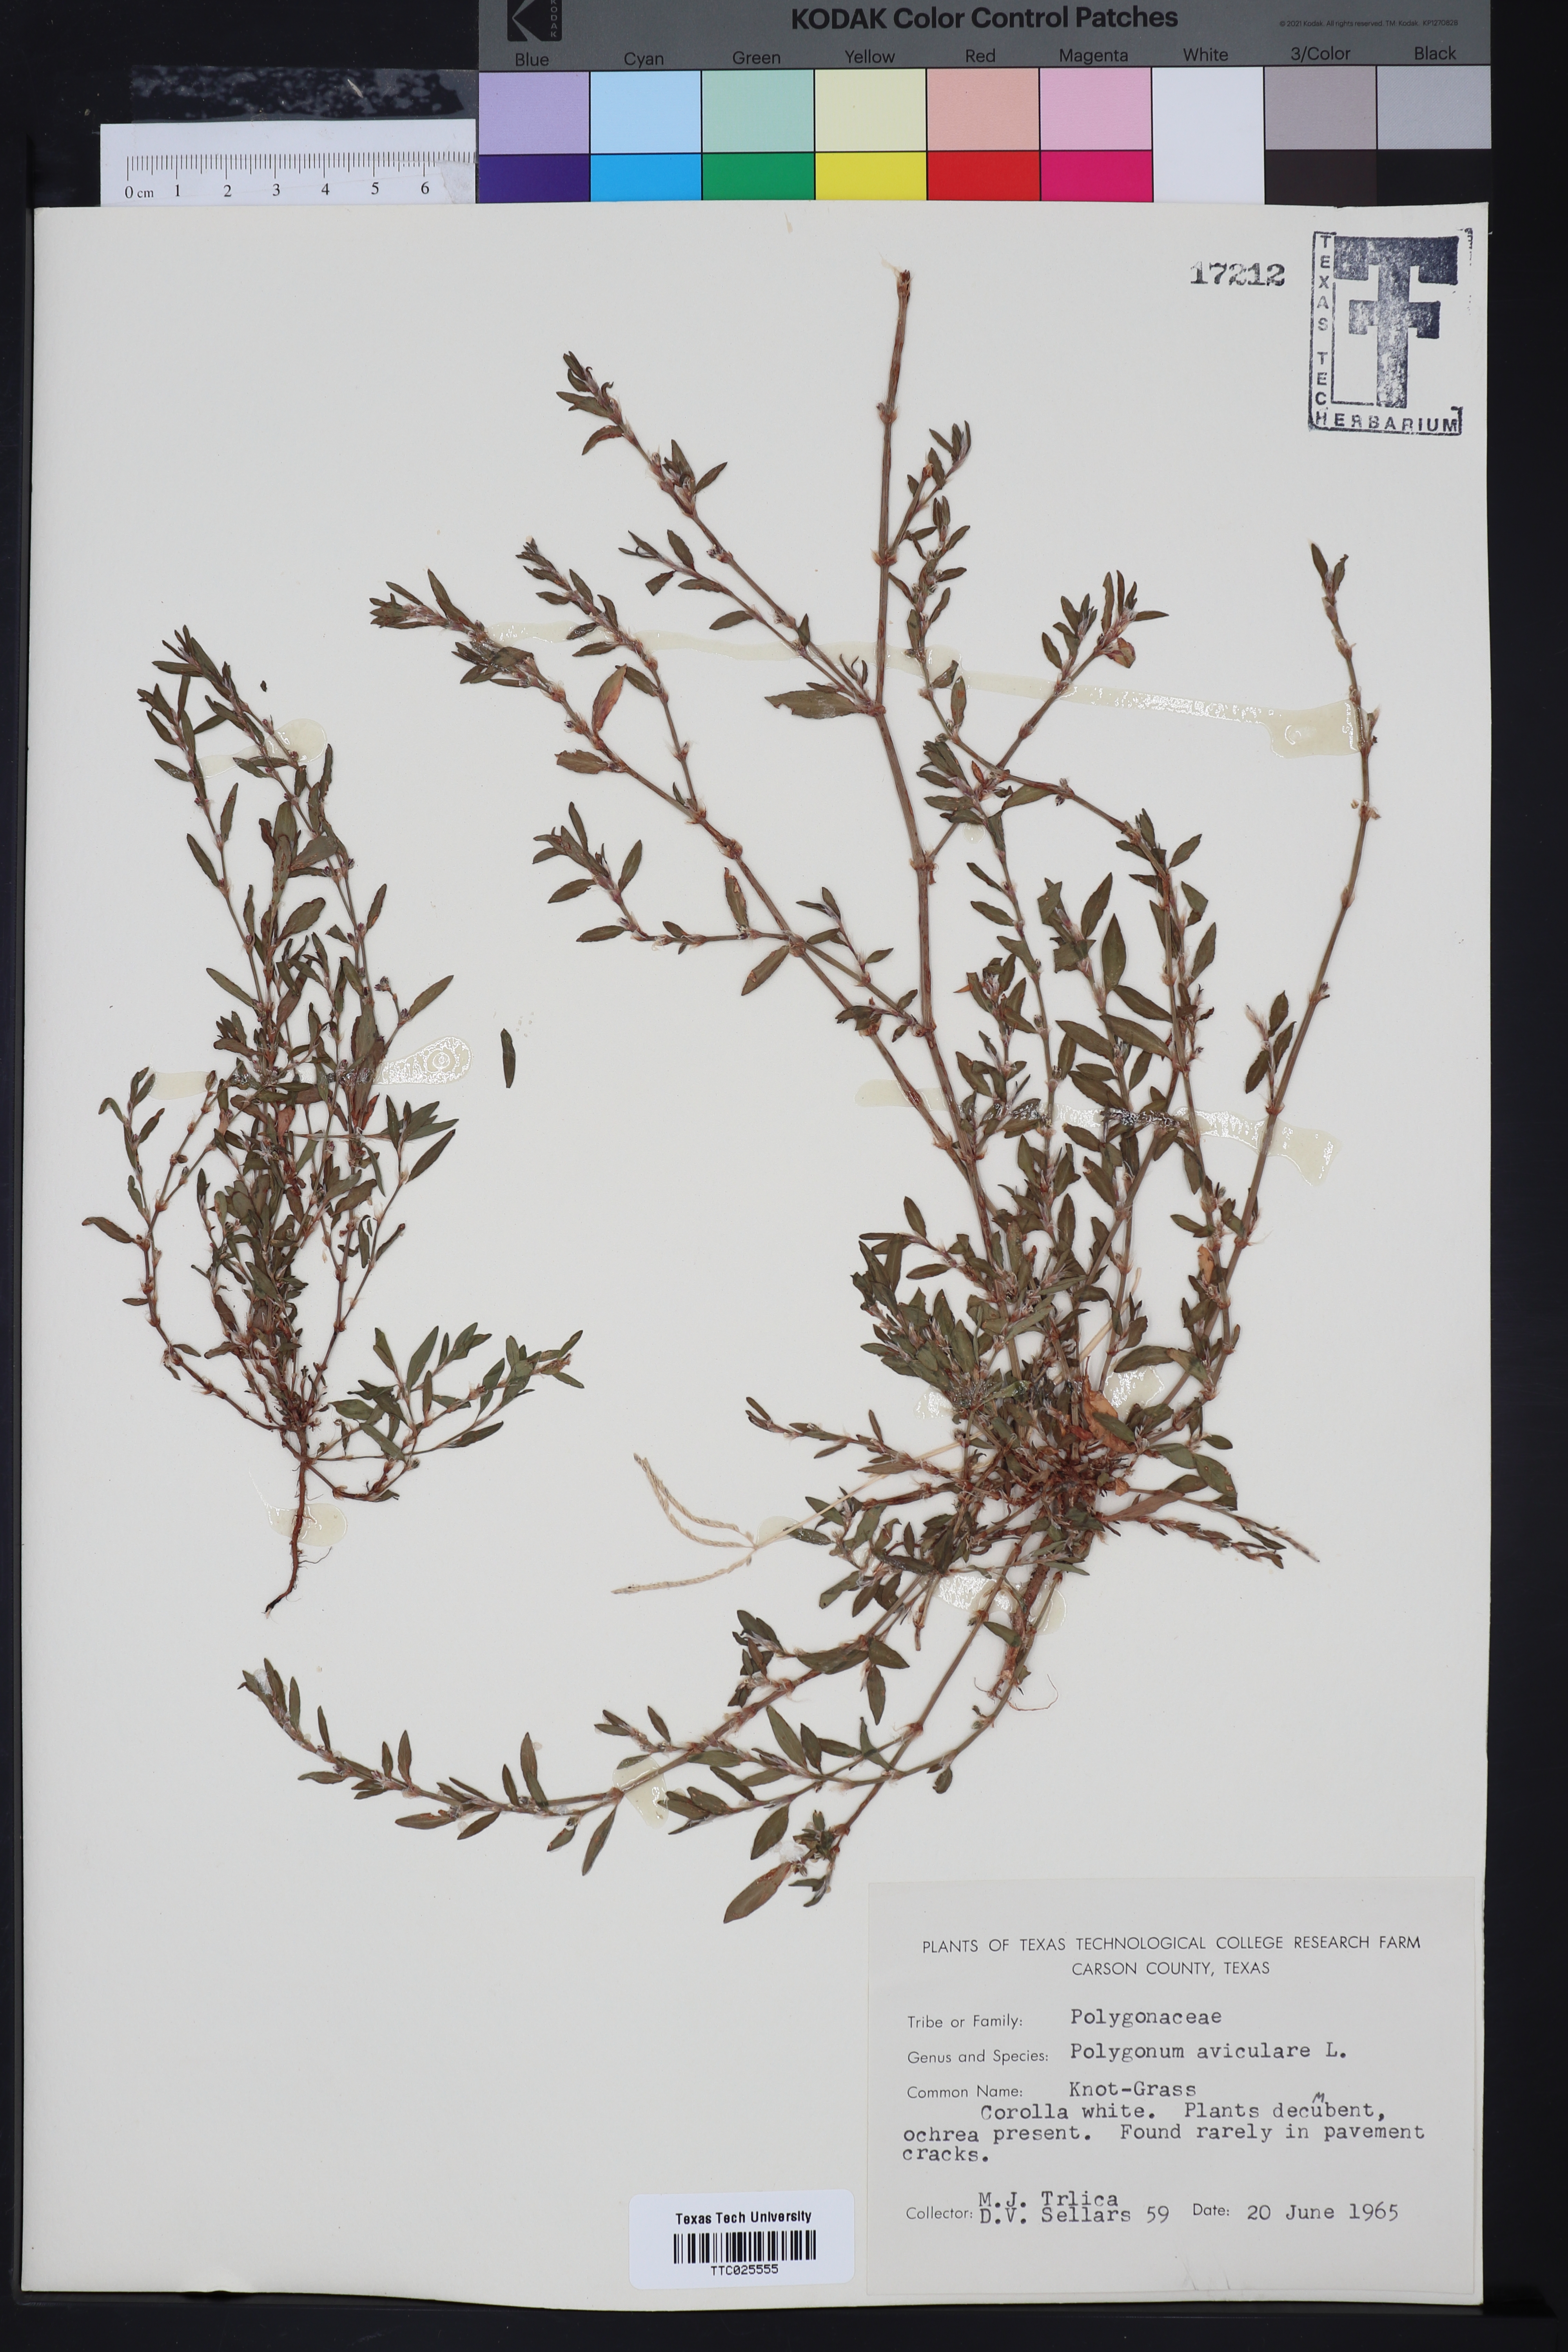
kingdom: Plantae
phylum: Tracheophyta
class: Magnoliopsida
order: Caryophyllales
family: Polygonaceae
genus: Polygonum
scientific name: Polygonum aviculare
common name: Prostrate knotweed
